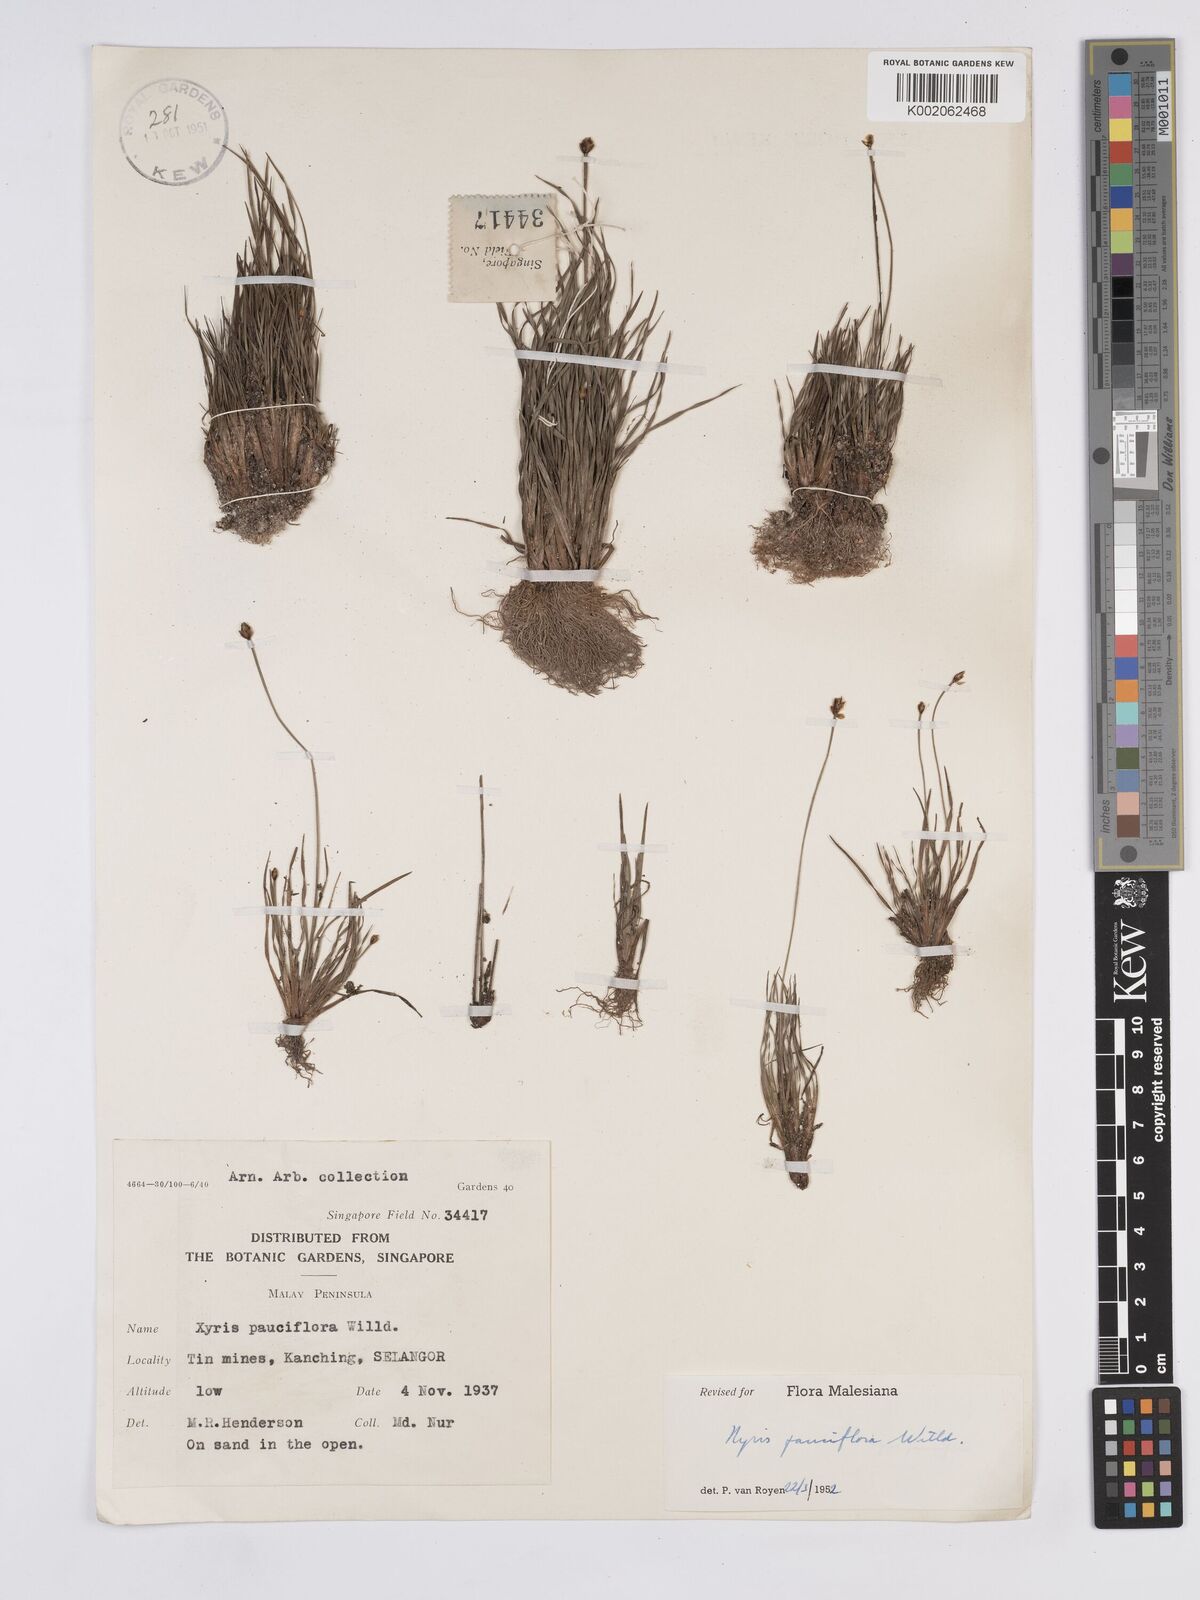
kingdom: Plantae
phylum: Tracheophyta
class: Liliopsida
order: Poales
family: Xyridaceae
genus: Xyris
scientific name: Xyris pauciflora
